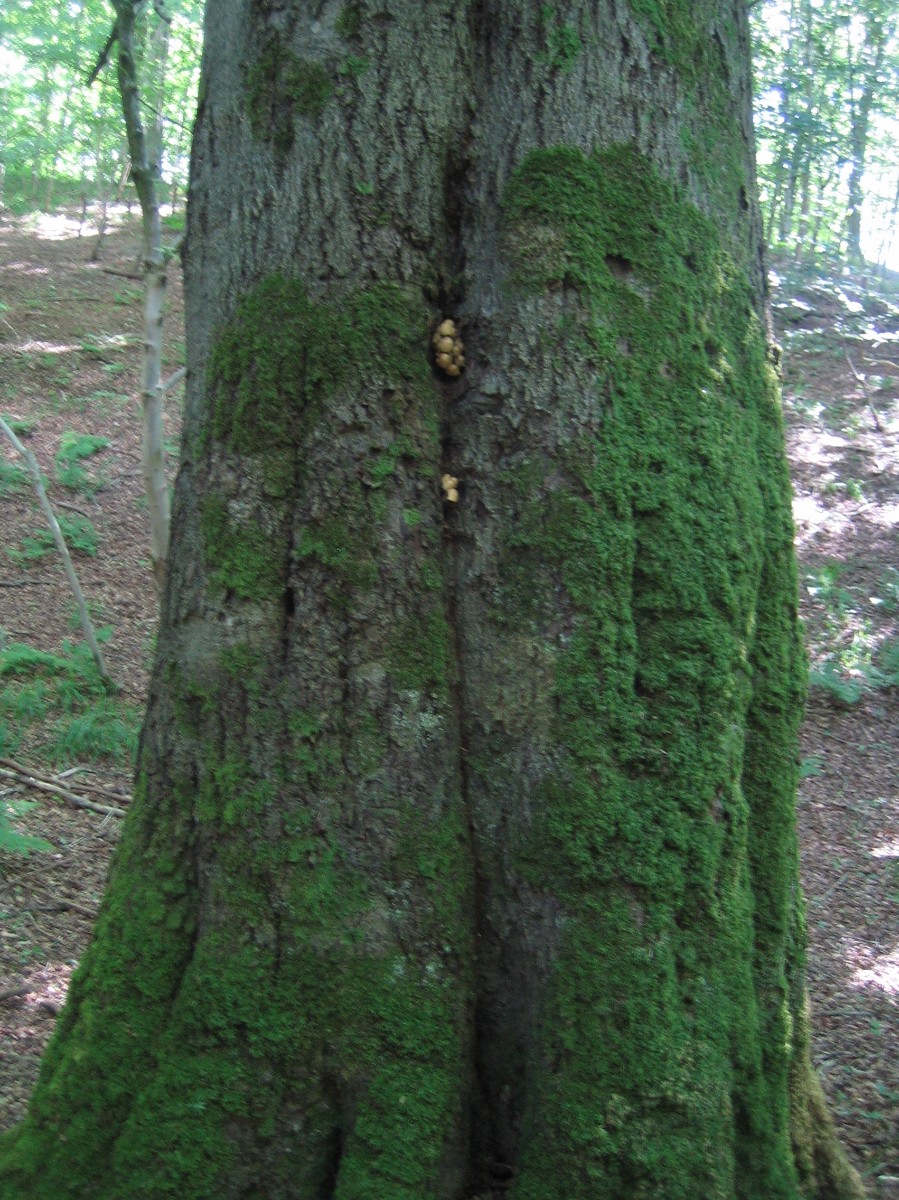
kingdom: Fungi
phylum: Basidiomycota
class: Agaricomycetes
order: Agaricales
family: Psathyrellaceae
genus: Coprinellus
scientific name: Coprinellus micaceus
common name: glimmer-blækhat
